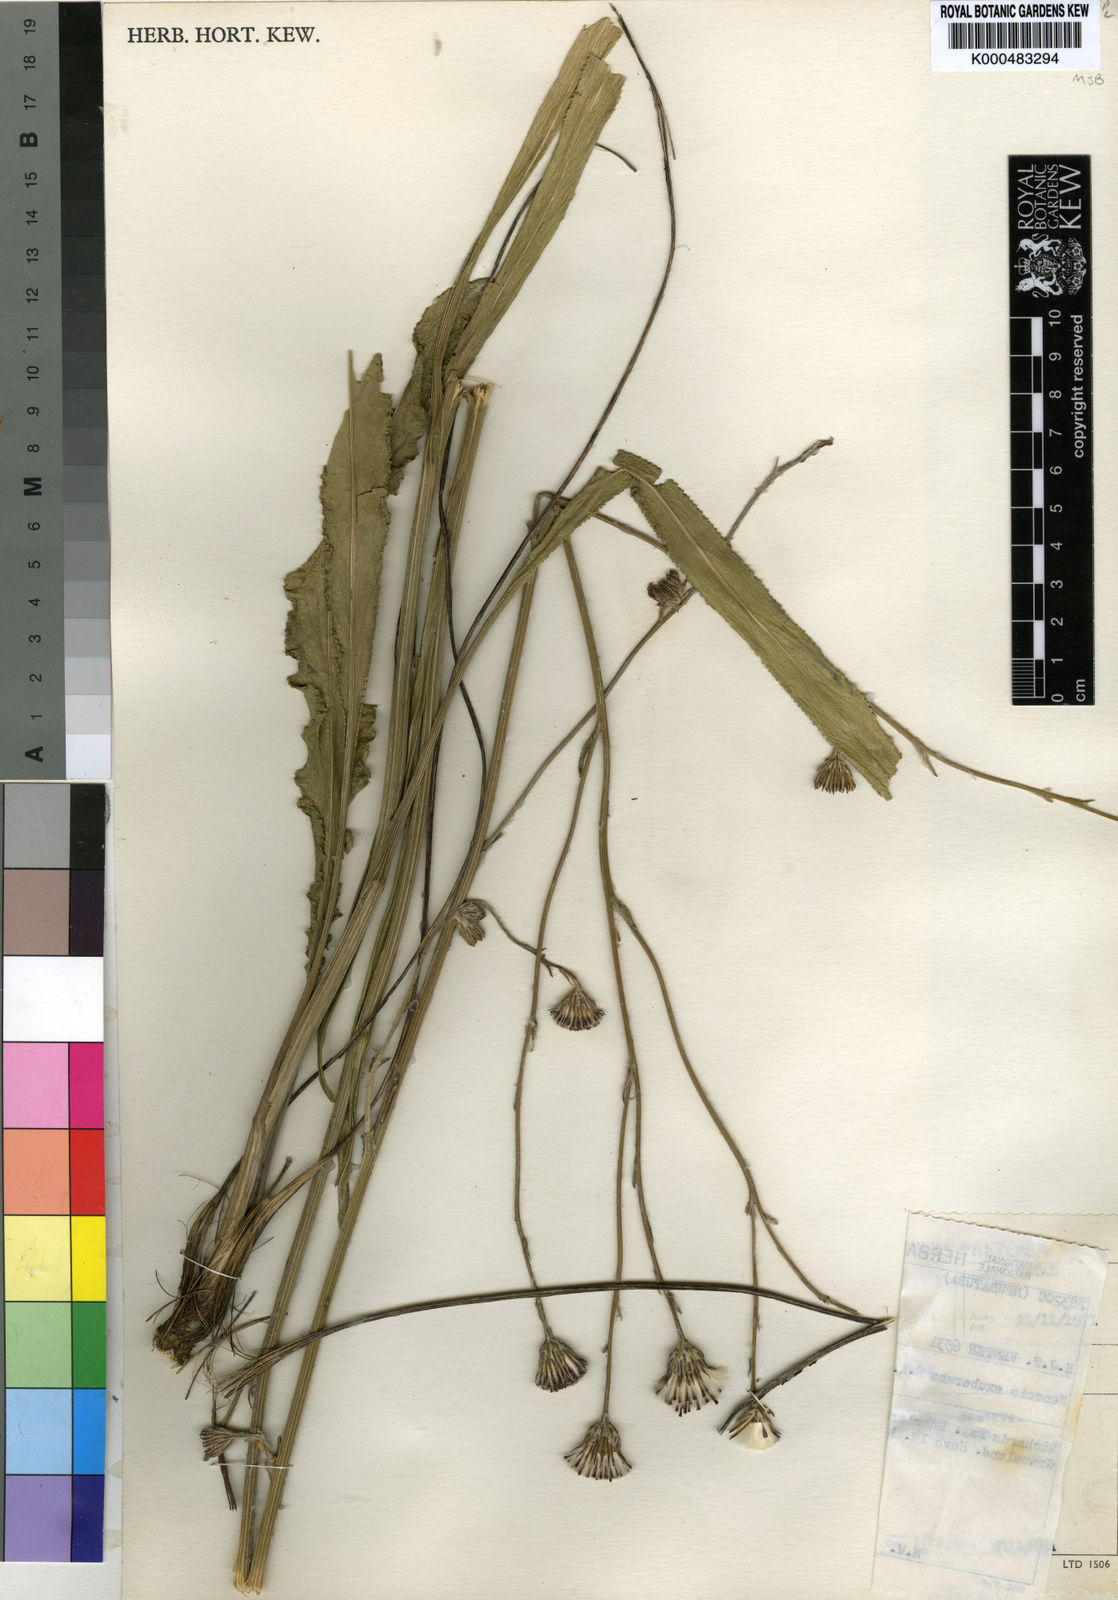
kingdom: Plantae
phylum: Tracheophyta
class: Magnoliopsida
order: Asterales
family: Asteraceae
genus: Senecio
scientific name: Senecio exuberans
